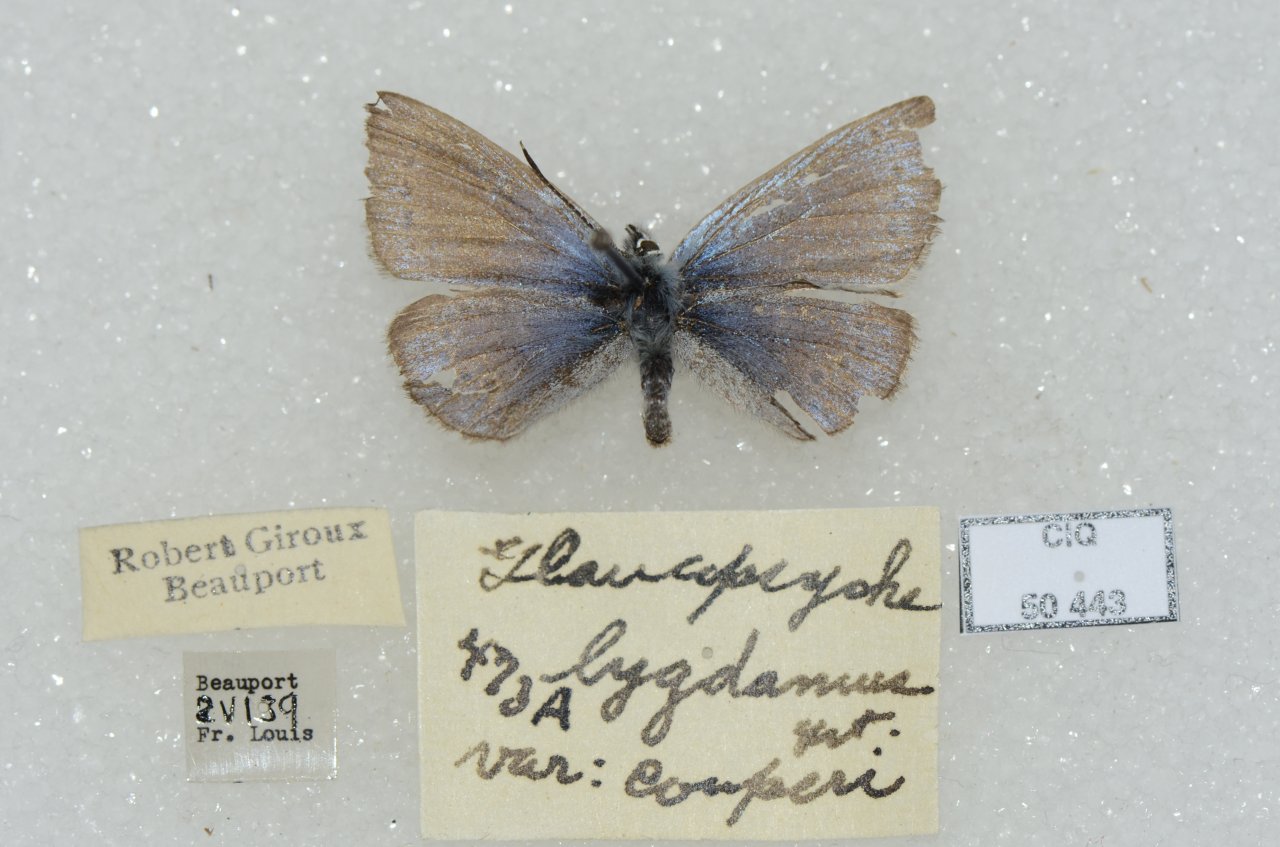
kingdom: Animalia
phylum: Arthropoda
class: Insecta
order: Lepidoptera
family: Lycaenidae
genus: Glaucopsyche
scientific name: Glaucopsyche lygdamus
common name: Silvery Blue
